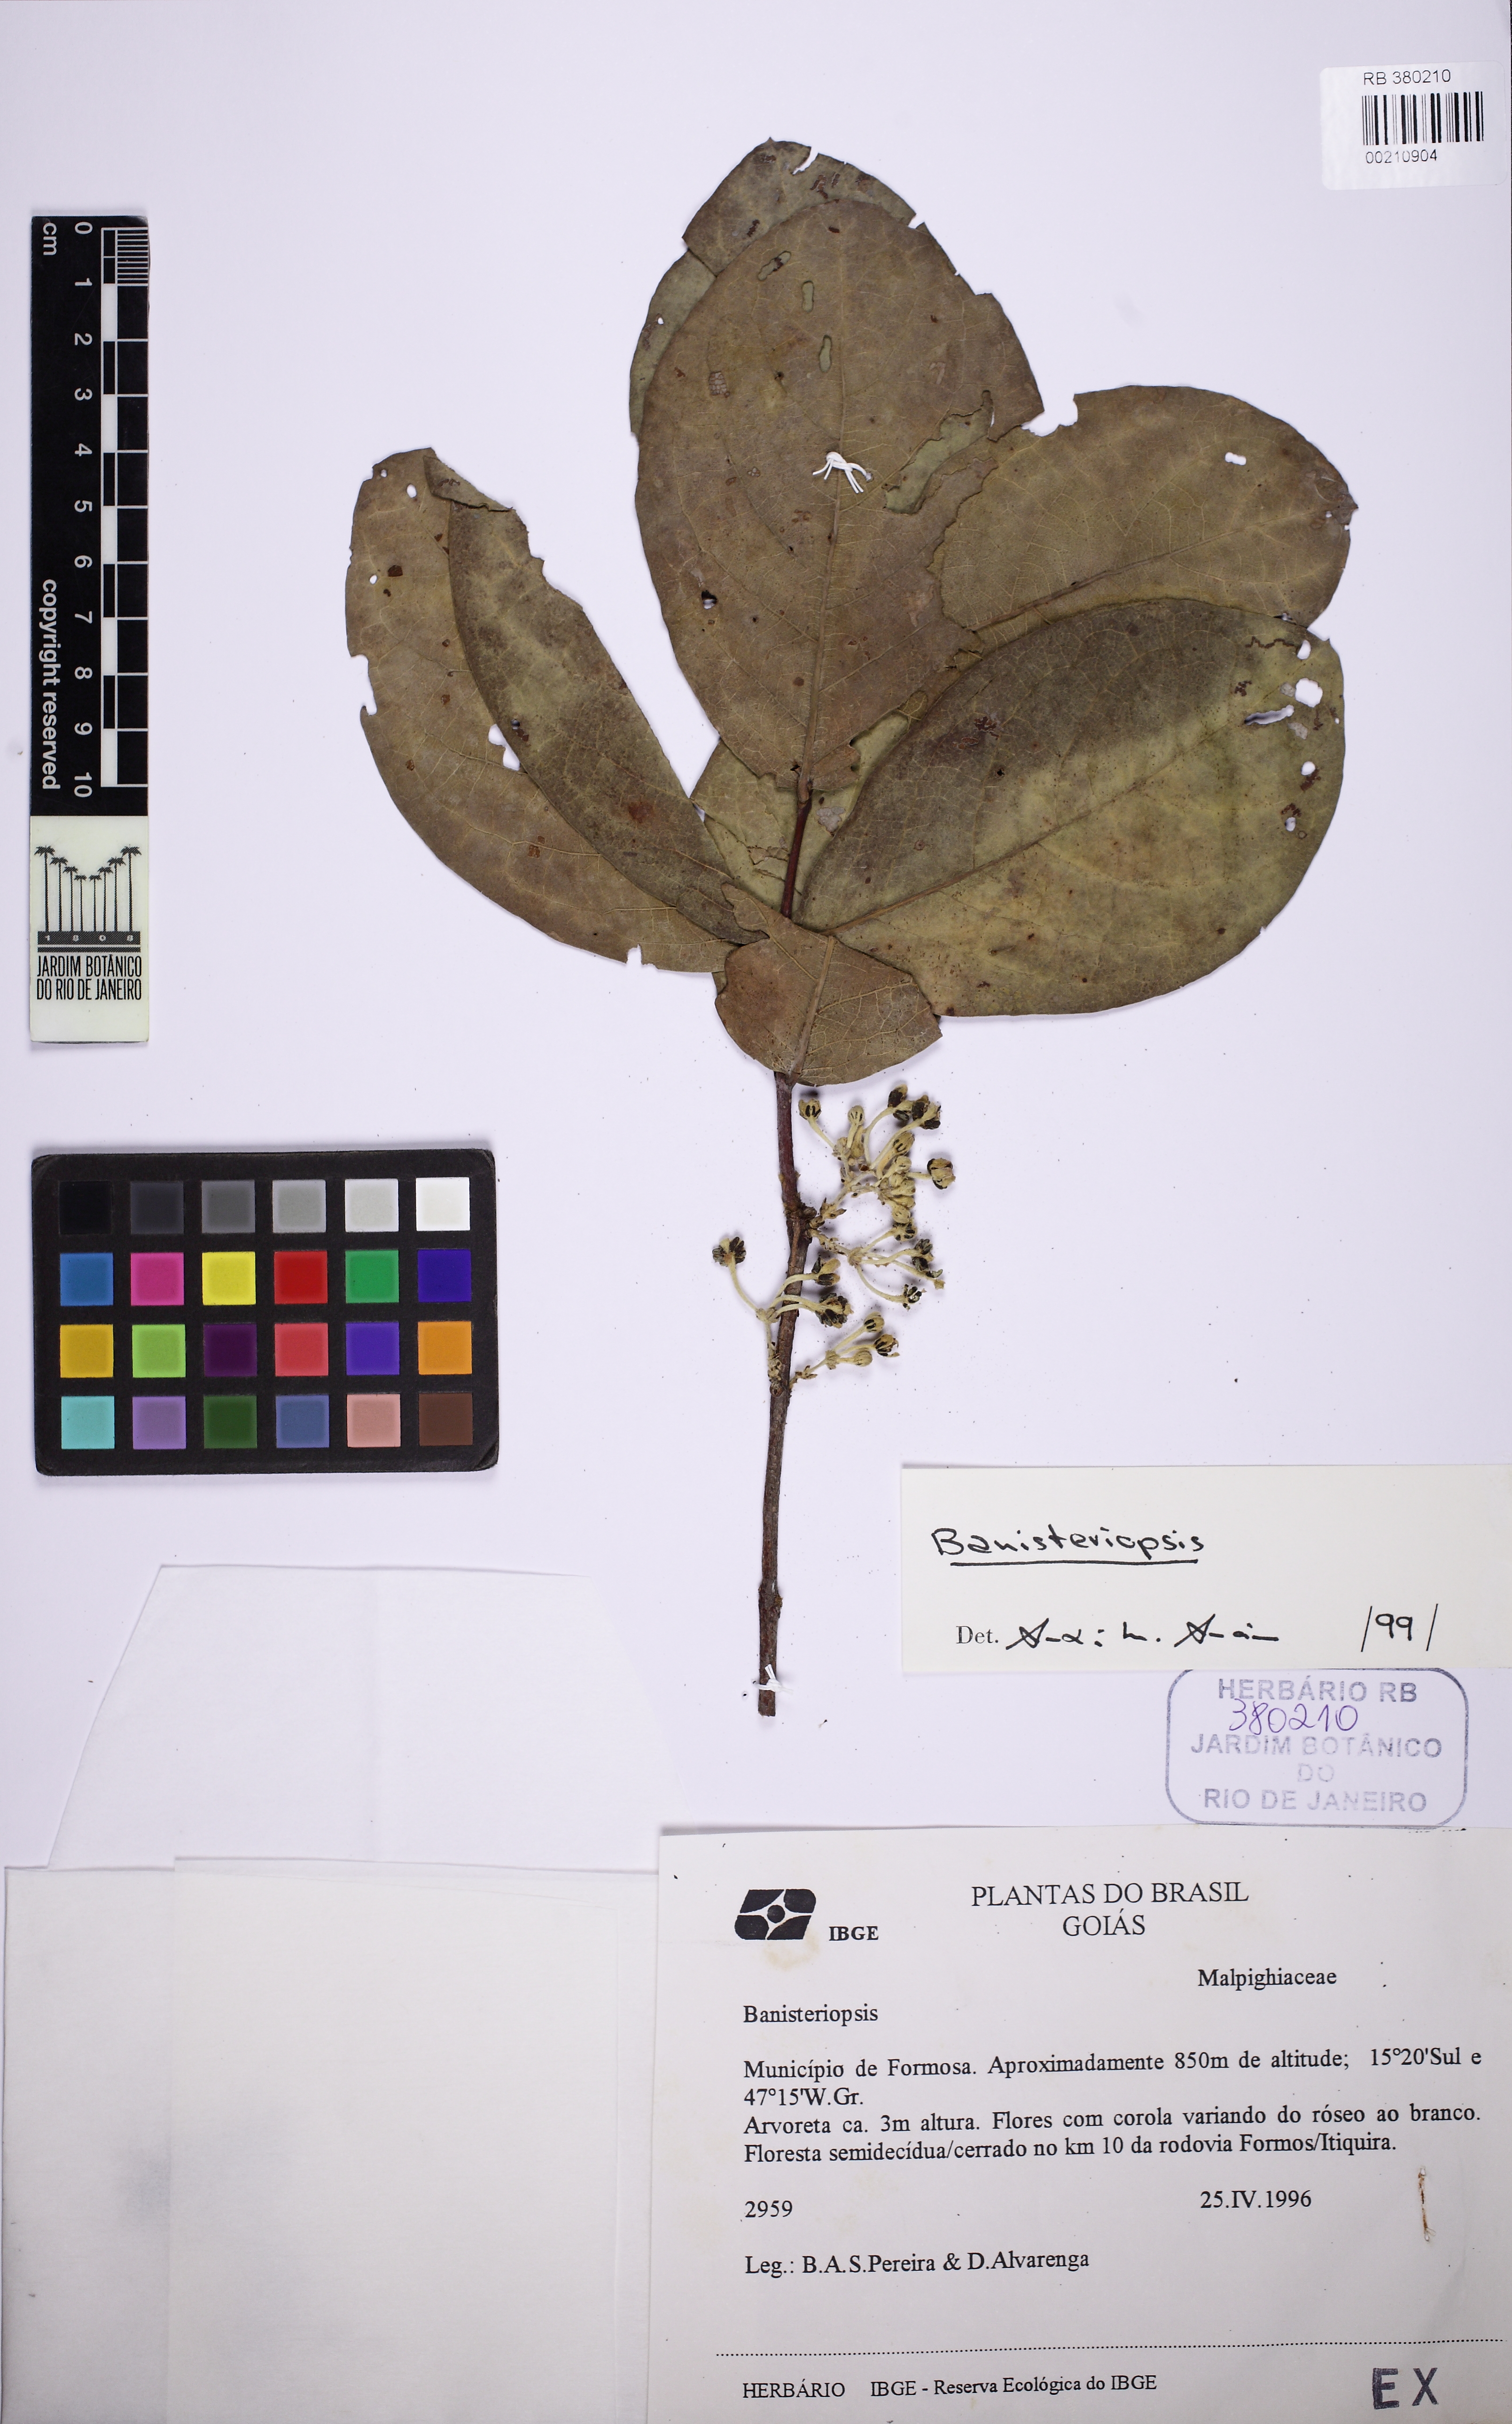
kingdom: Plantae
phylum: Tracheophyta
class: Magnoliopsida
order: Malpighiales
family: Malpighiaceae
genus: Banisteriopsis
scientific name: Banisteriopsis
